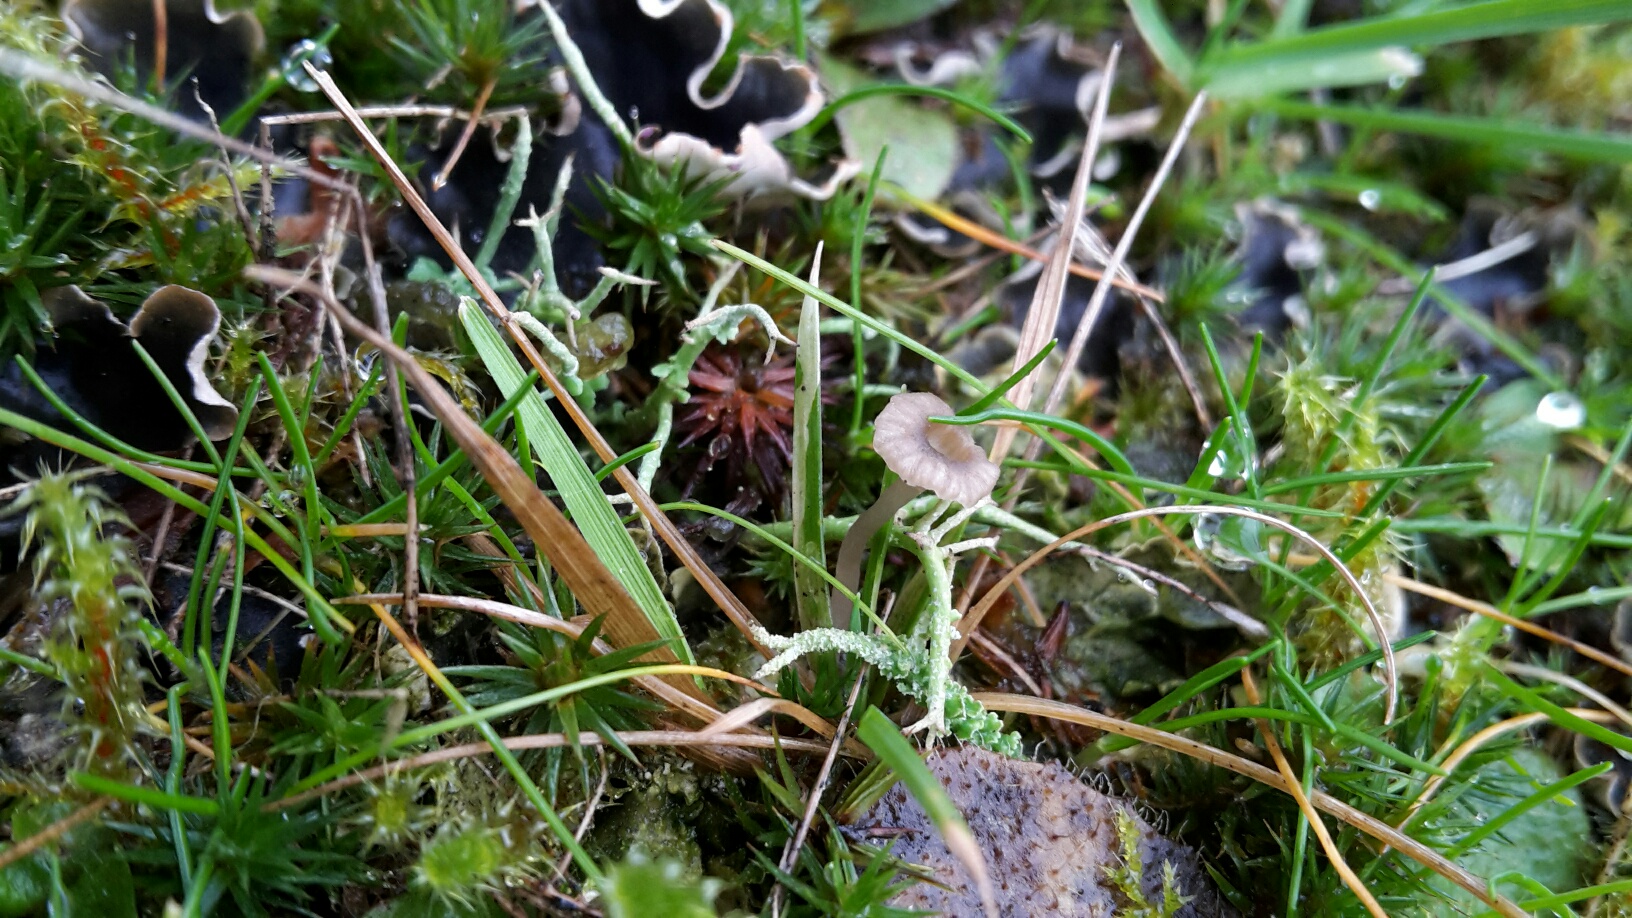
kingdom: Fungi
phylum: Basidiomycota
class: Agaricomycetes
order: Agaricales
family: Hygrophoraceae
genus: Arrhenia
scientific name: Arrhenia peltigerina
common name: skjoldlav-fontænehat
